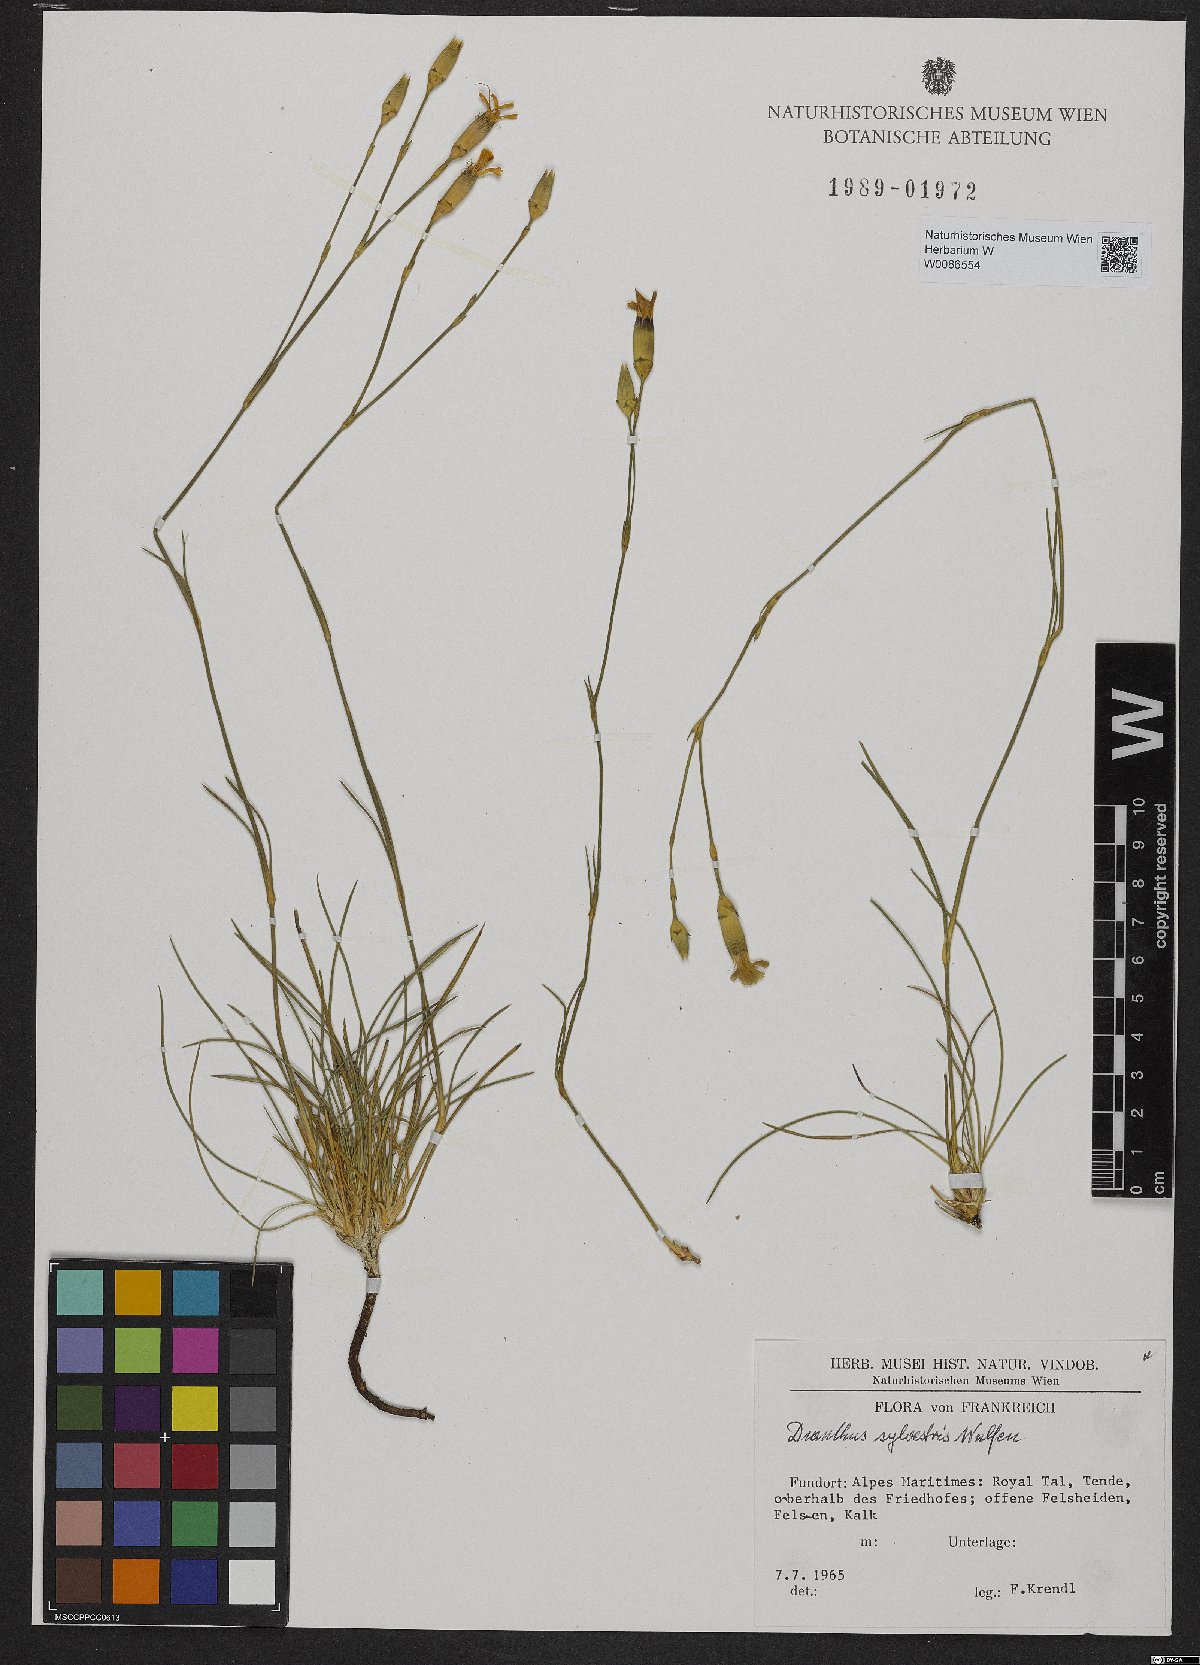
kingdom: Plantae
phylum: Tracheophyta
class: Magnoliopsida
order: Caryophyllales
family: Caryophyllaceae
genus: Dianthus
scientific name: Dianthus sylvestris
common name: Wood pink
